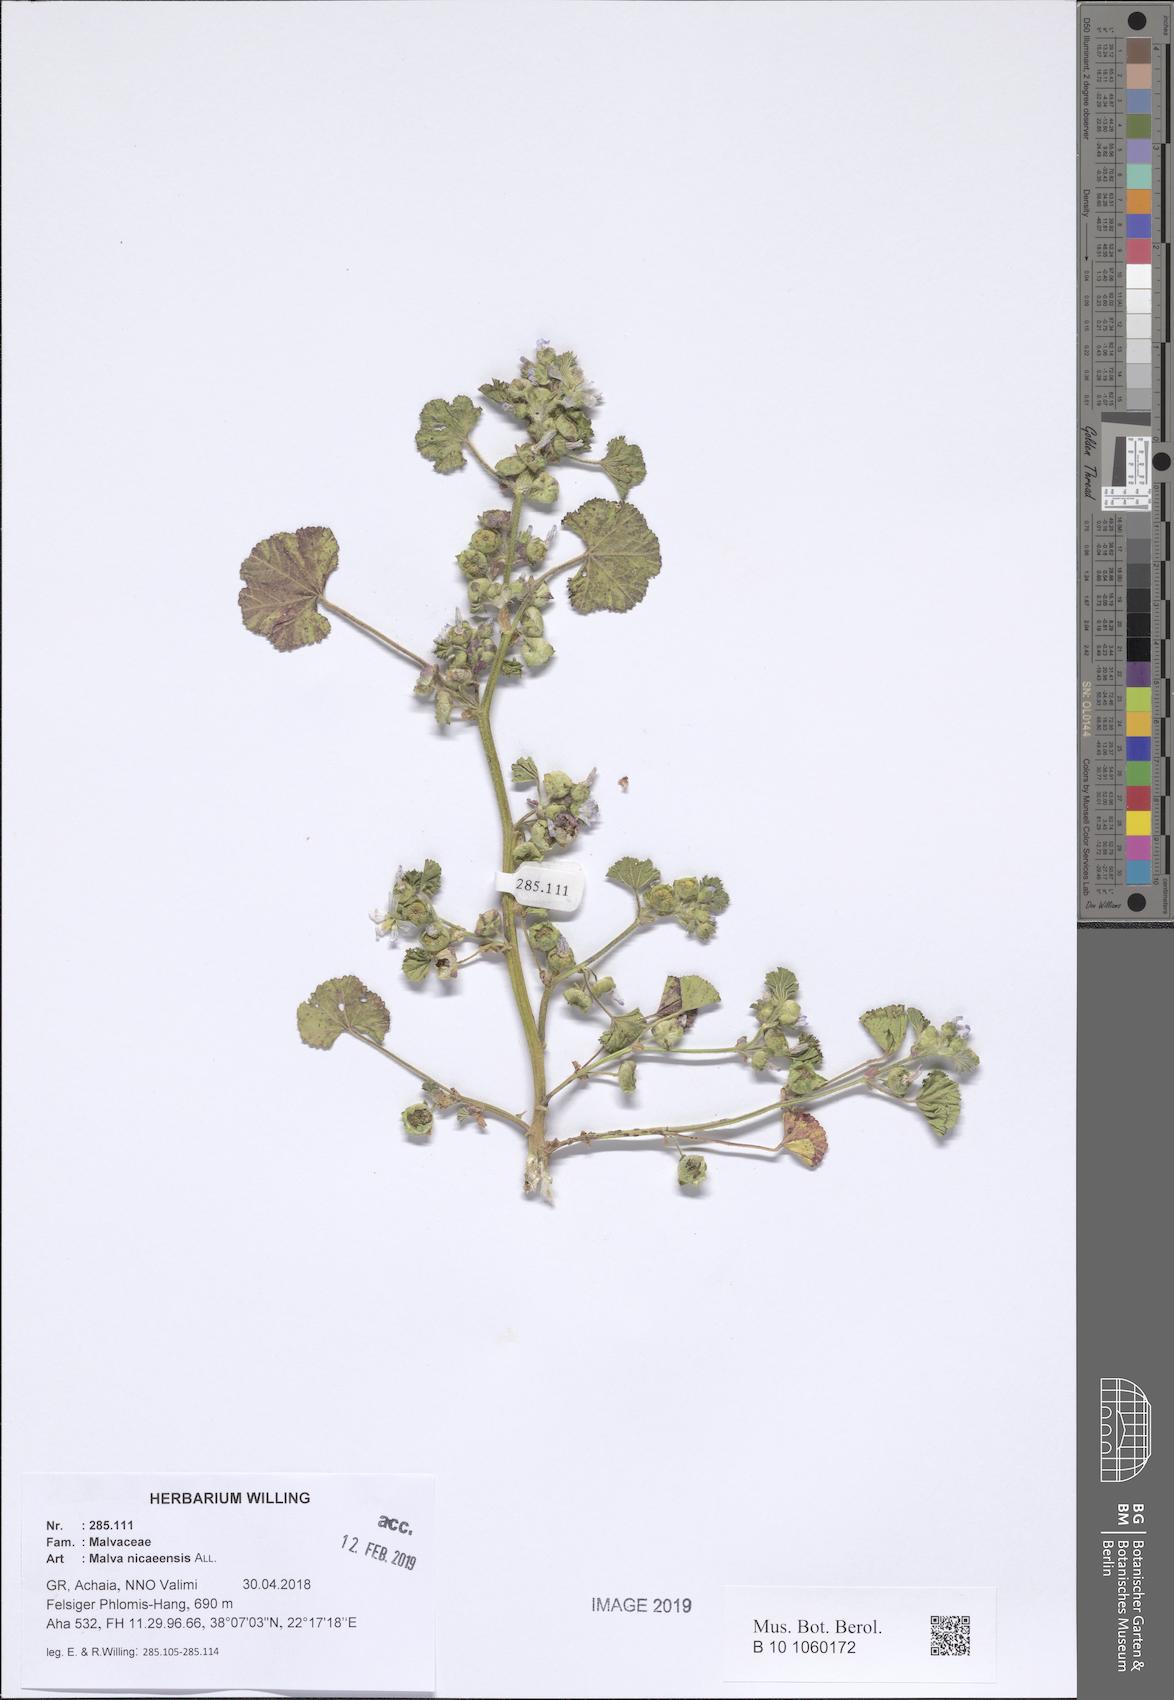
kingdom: Plantae
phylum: Tracheophyta
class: Magnoliopsida
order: Malvales
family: Malvaceae
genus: Malva
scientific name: Malva nicaeensis
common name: French mallow
